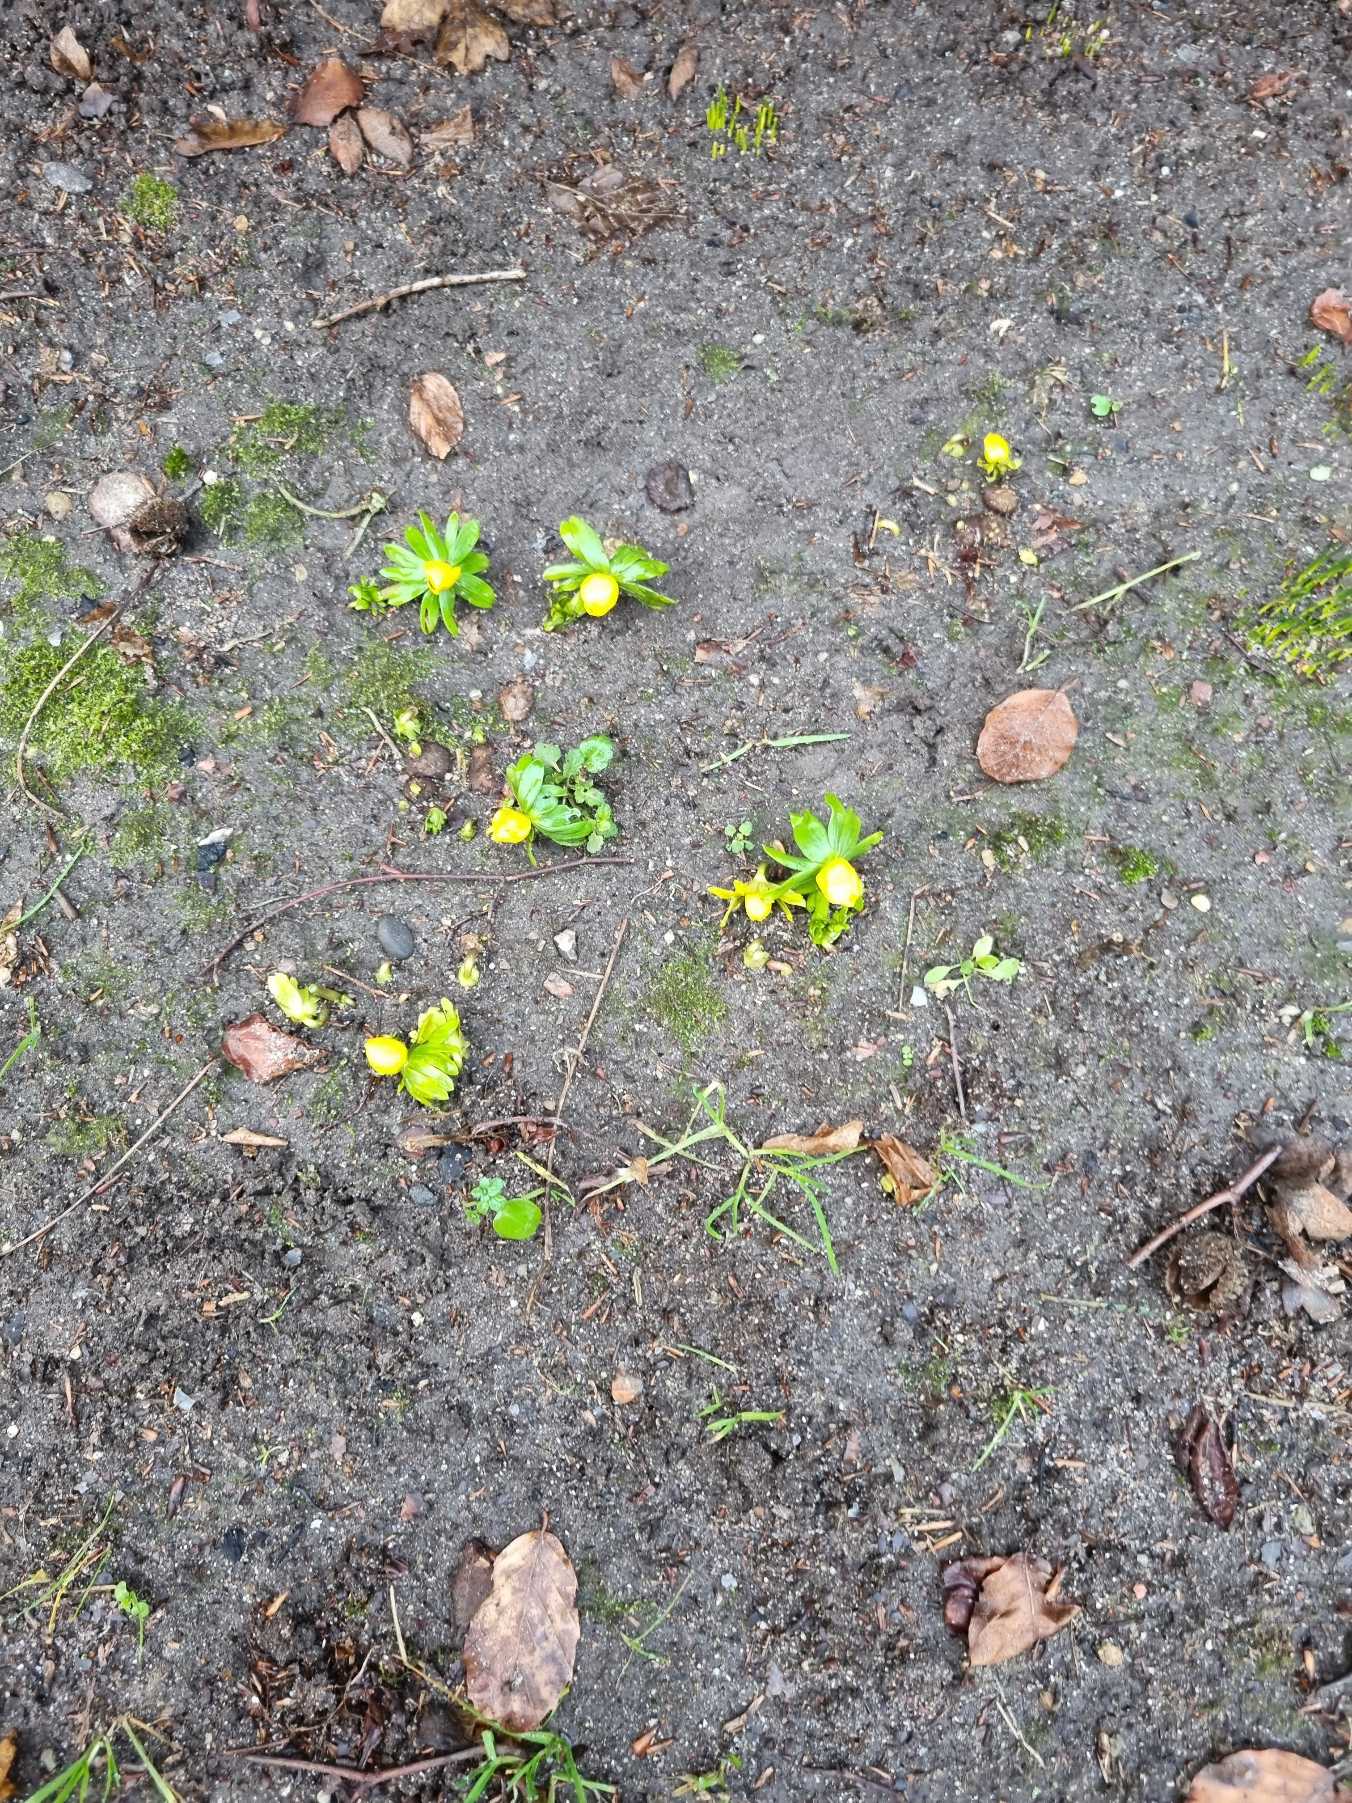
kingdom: Plantae
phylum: Tracheophyta
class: Magnoliopsida
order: Ranunculales
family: Ranunculaceae
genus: Eranthis
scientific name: Eranthis hyemalis
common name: Erantis
